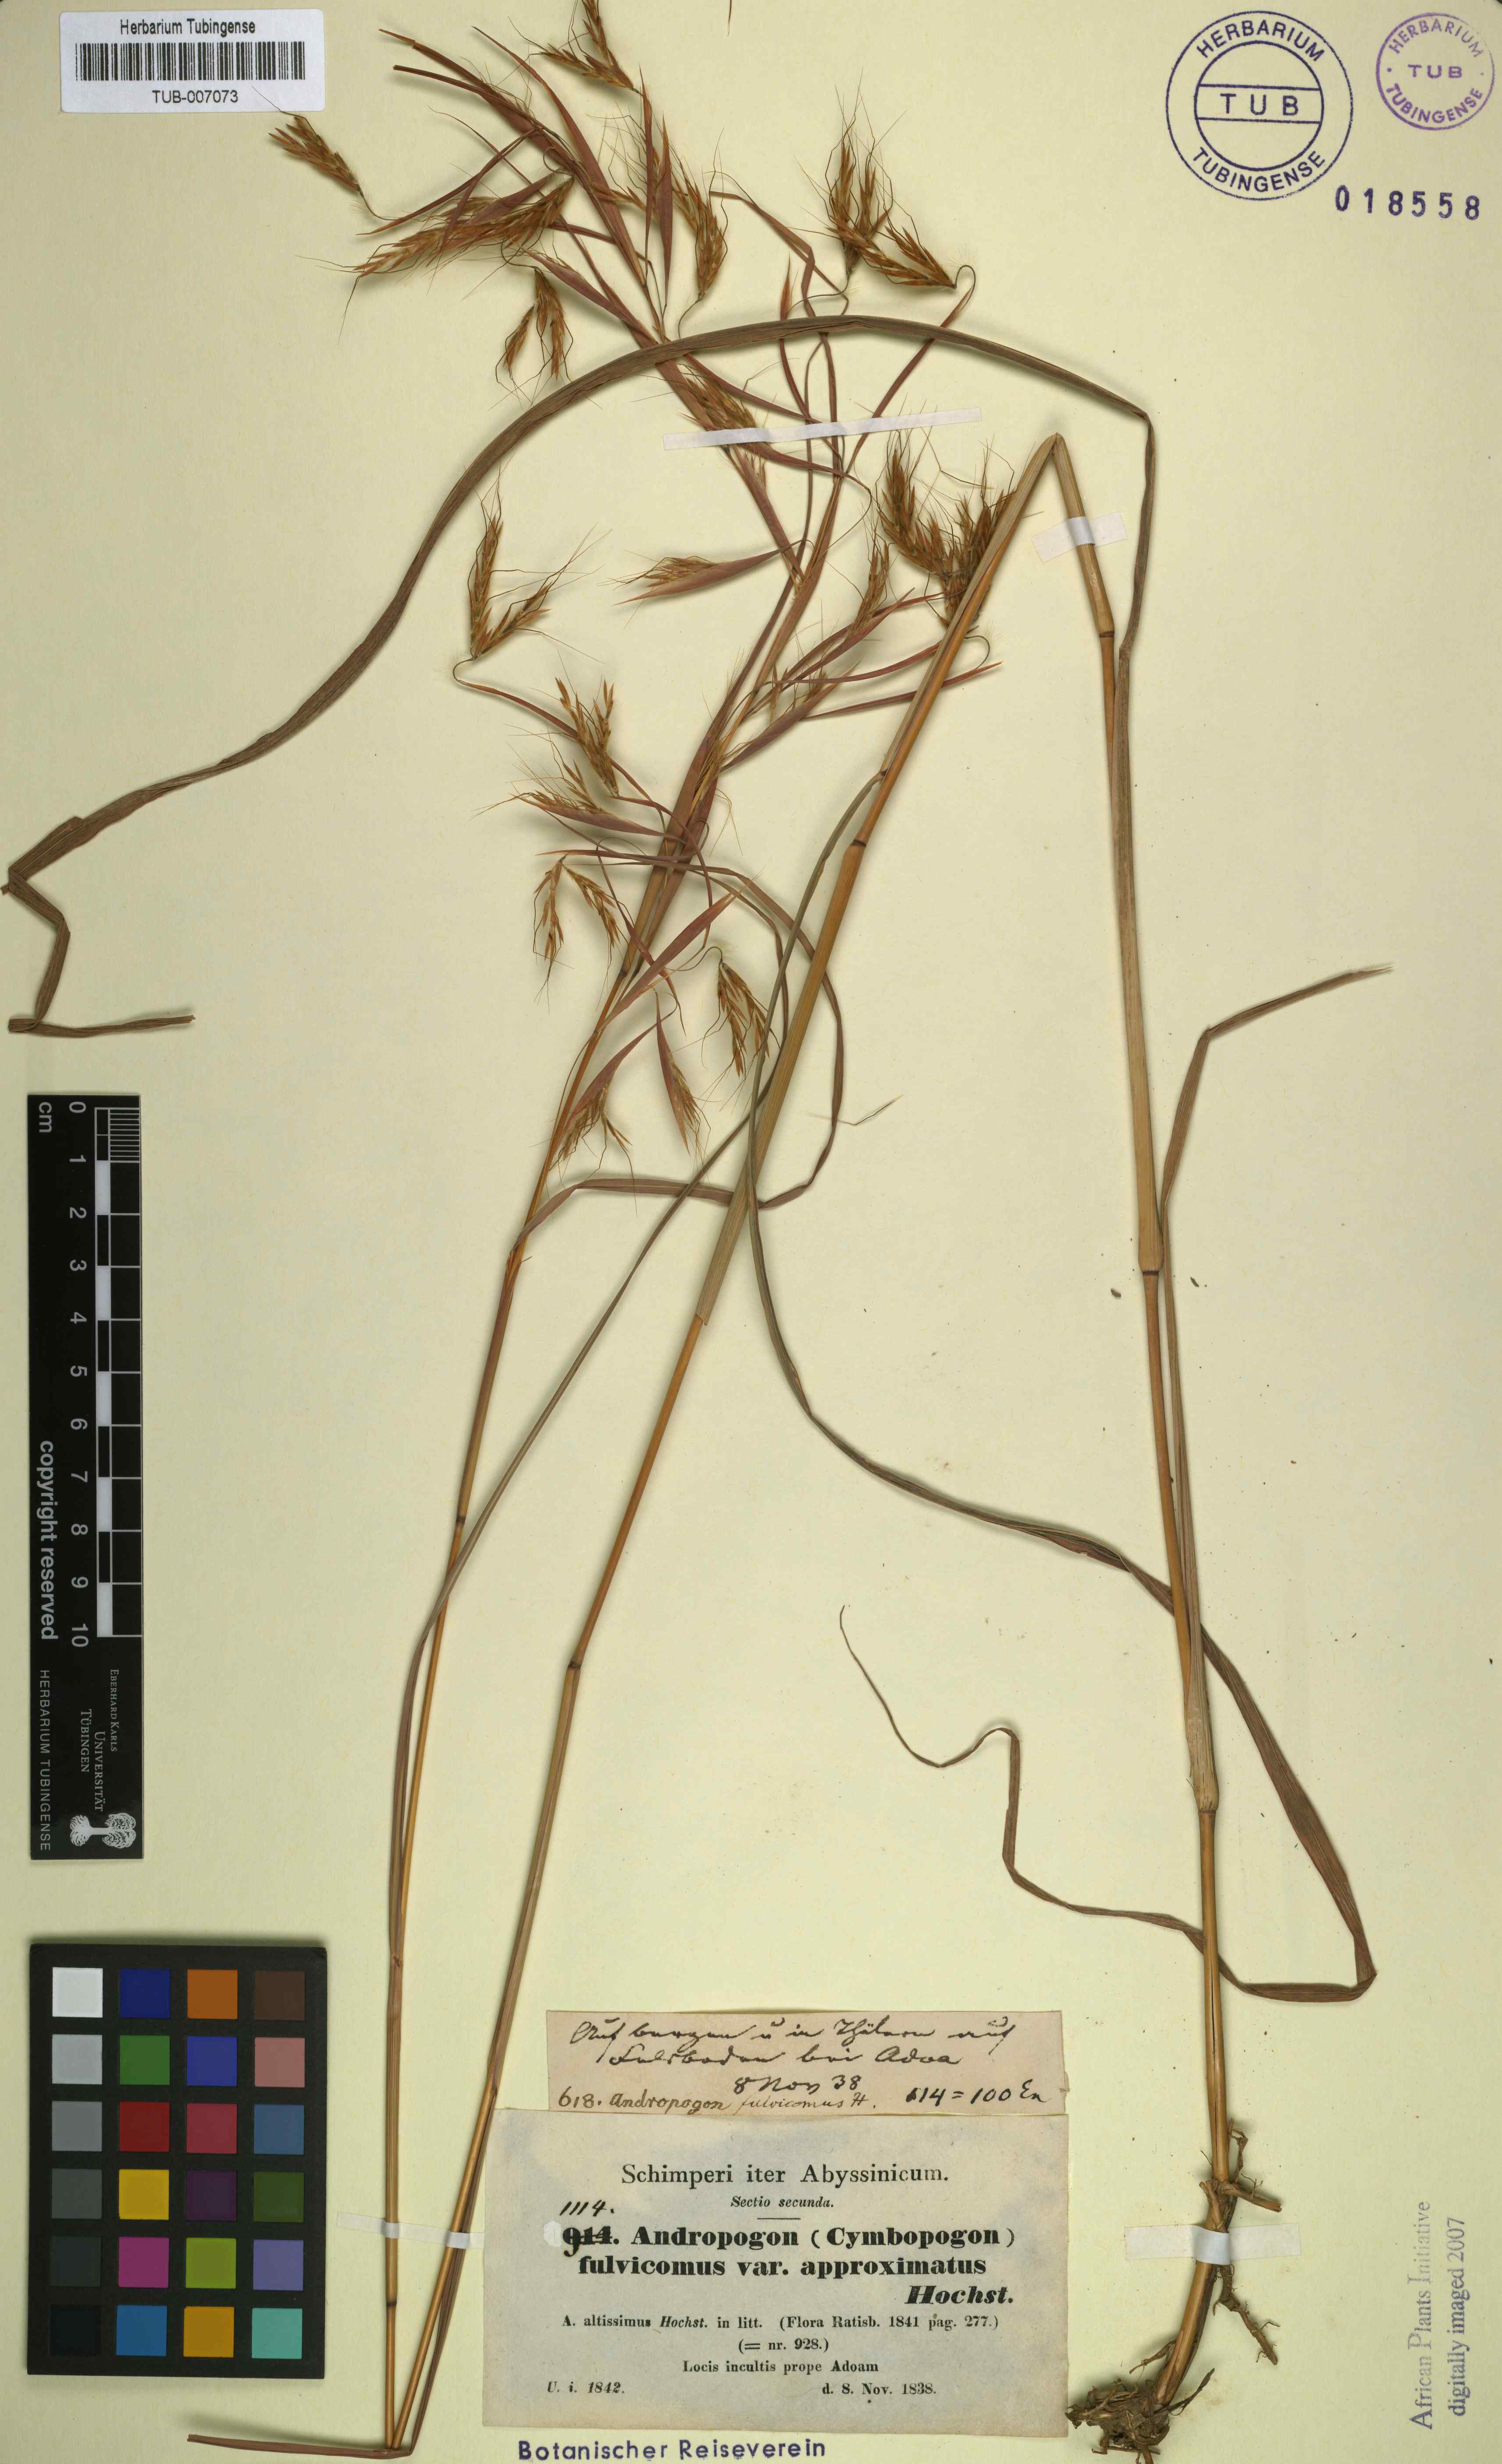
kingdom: Plantae
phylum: Tracheophyta
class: Liliopsida
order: Poales
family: Poaceae
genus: Hyparrhenia
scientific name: Hyparrhenia rufa
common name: Jaraguagrass
